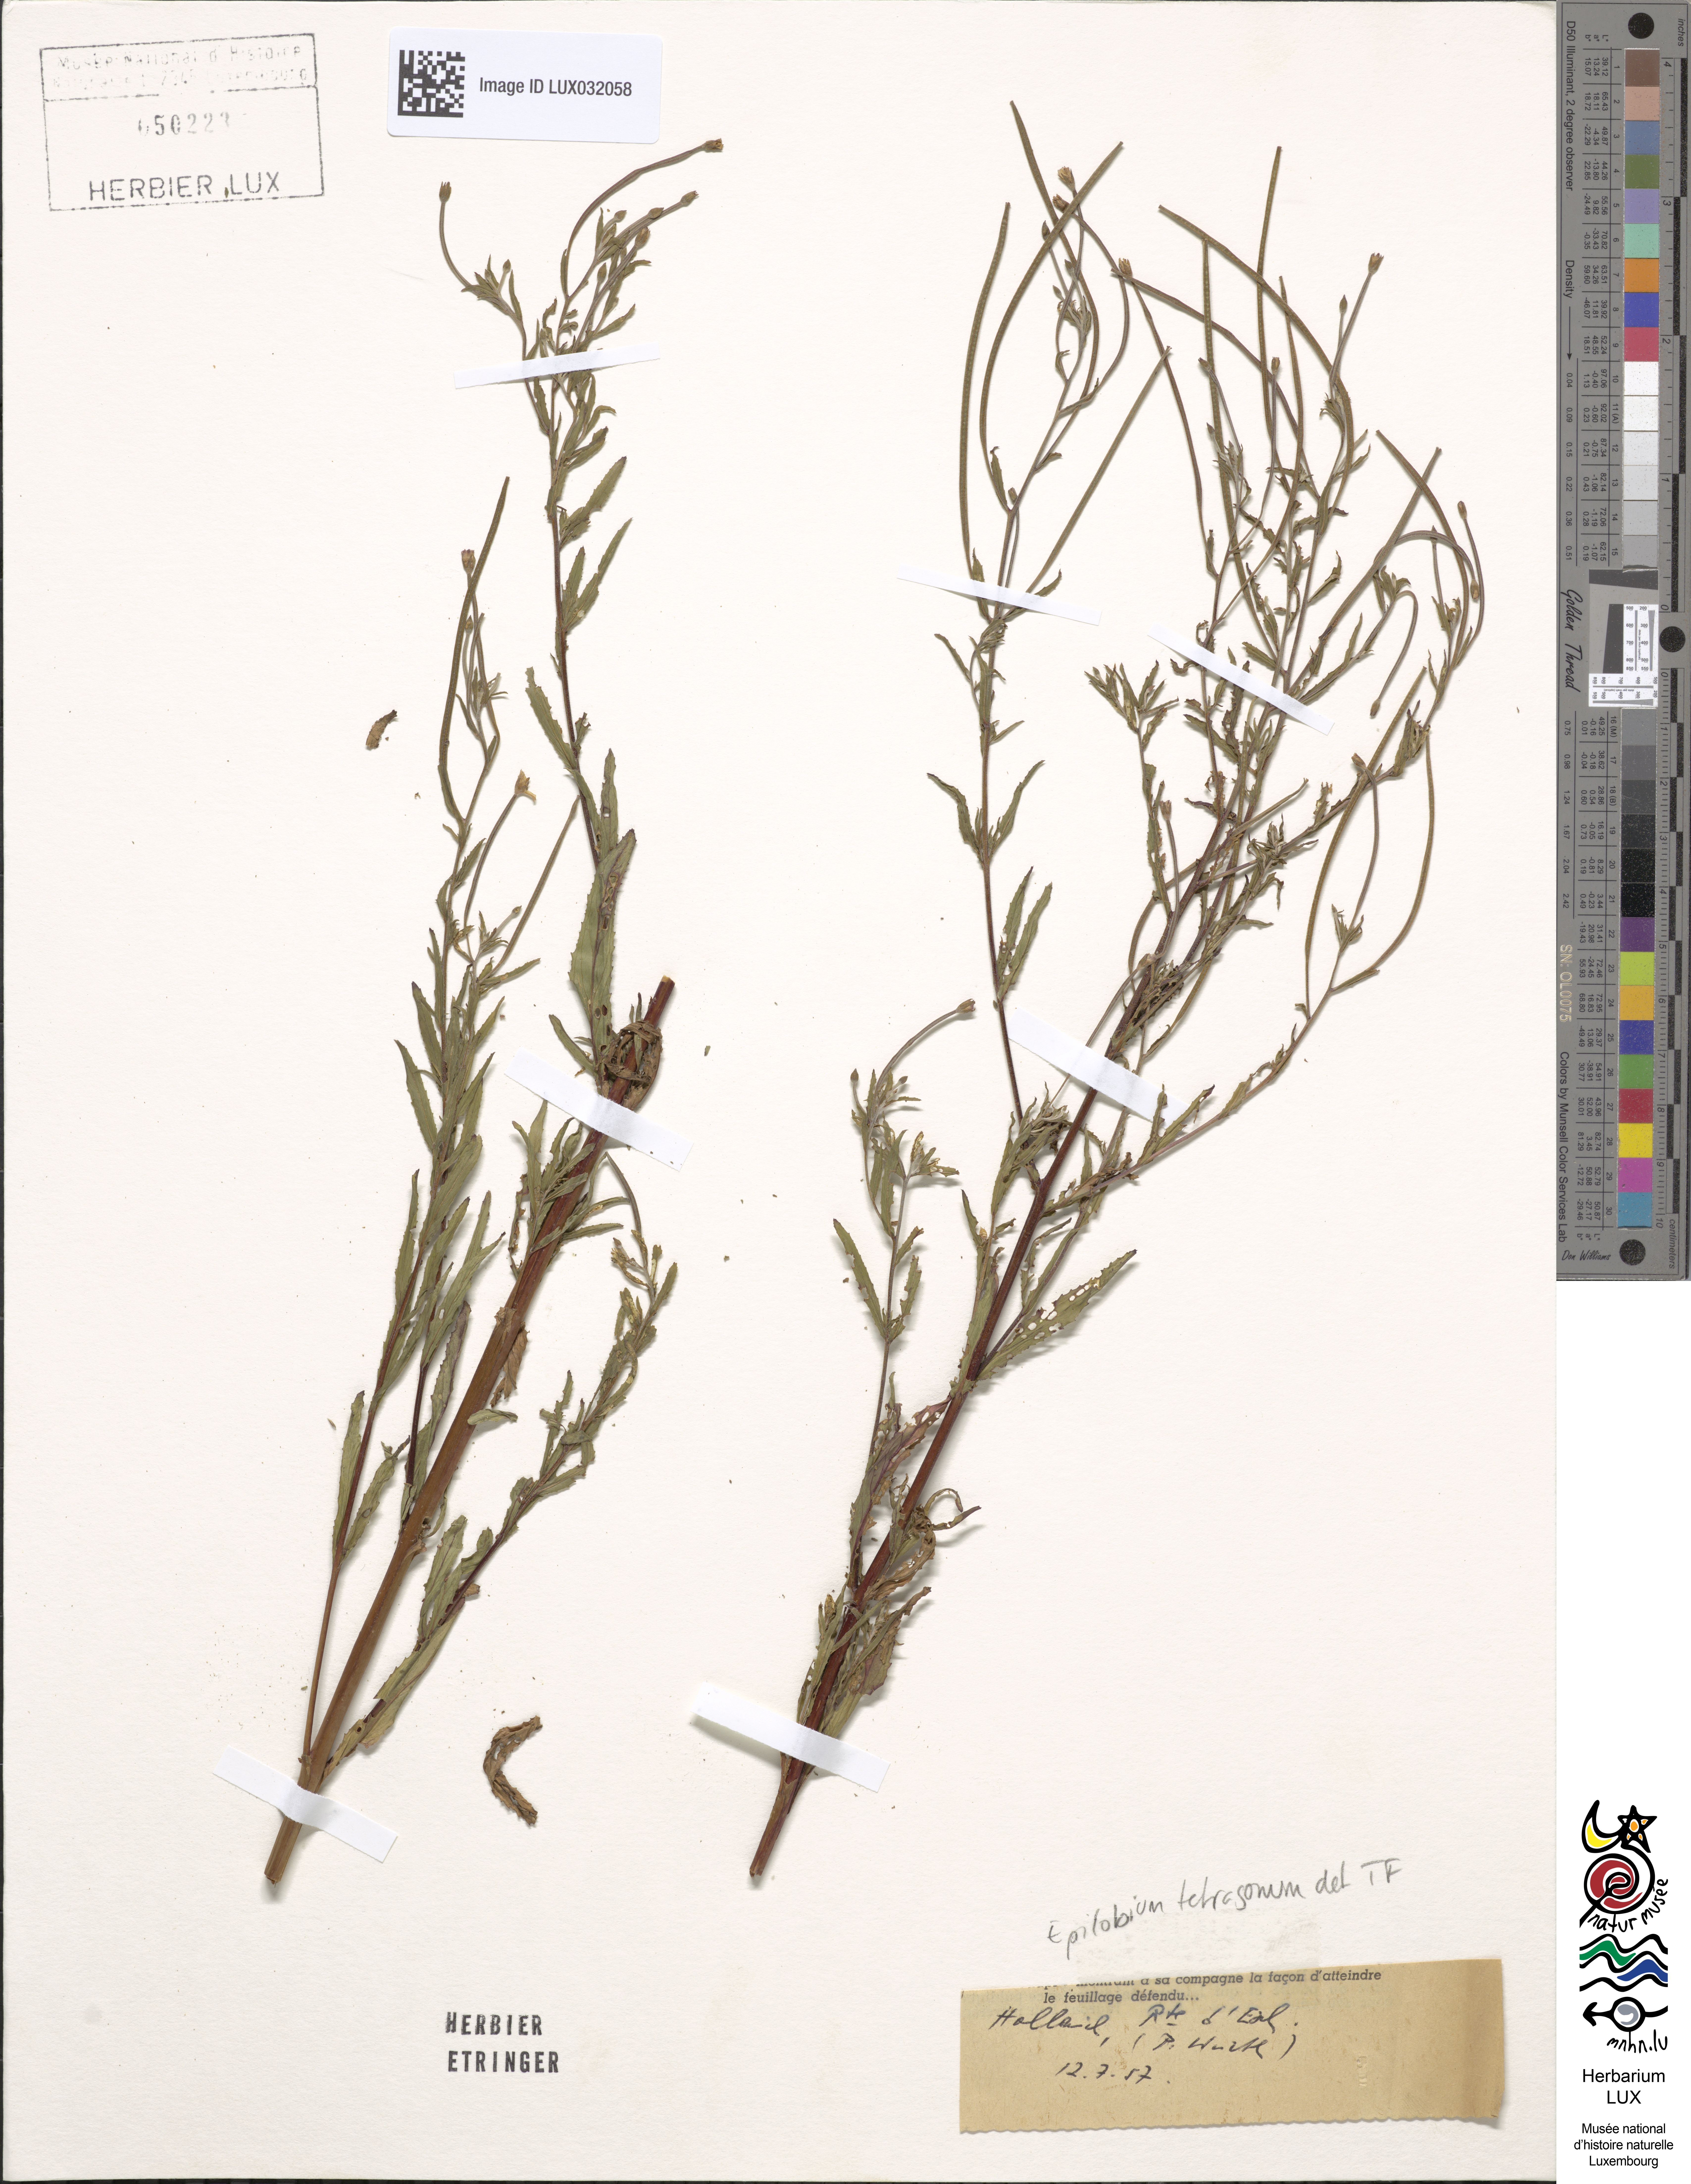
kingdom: Plantae
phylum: Tracheophyta
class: Magnoliopsida
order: Myrtales
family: Onagraceae
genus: Epilobium
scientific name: Epilobium tetragonum
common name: Square-stemmed willowherb
